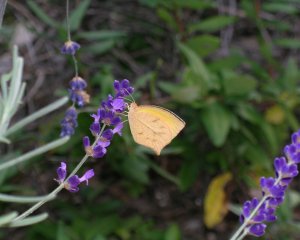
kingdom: Animalia
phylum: Arthropoda
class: Insecta
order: Lepidoptera
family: Pieridae
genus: Pyrisitia
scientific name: Pyrisitia proterpia
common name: Tailed Orange
